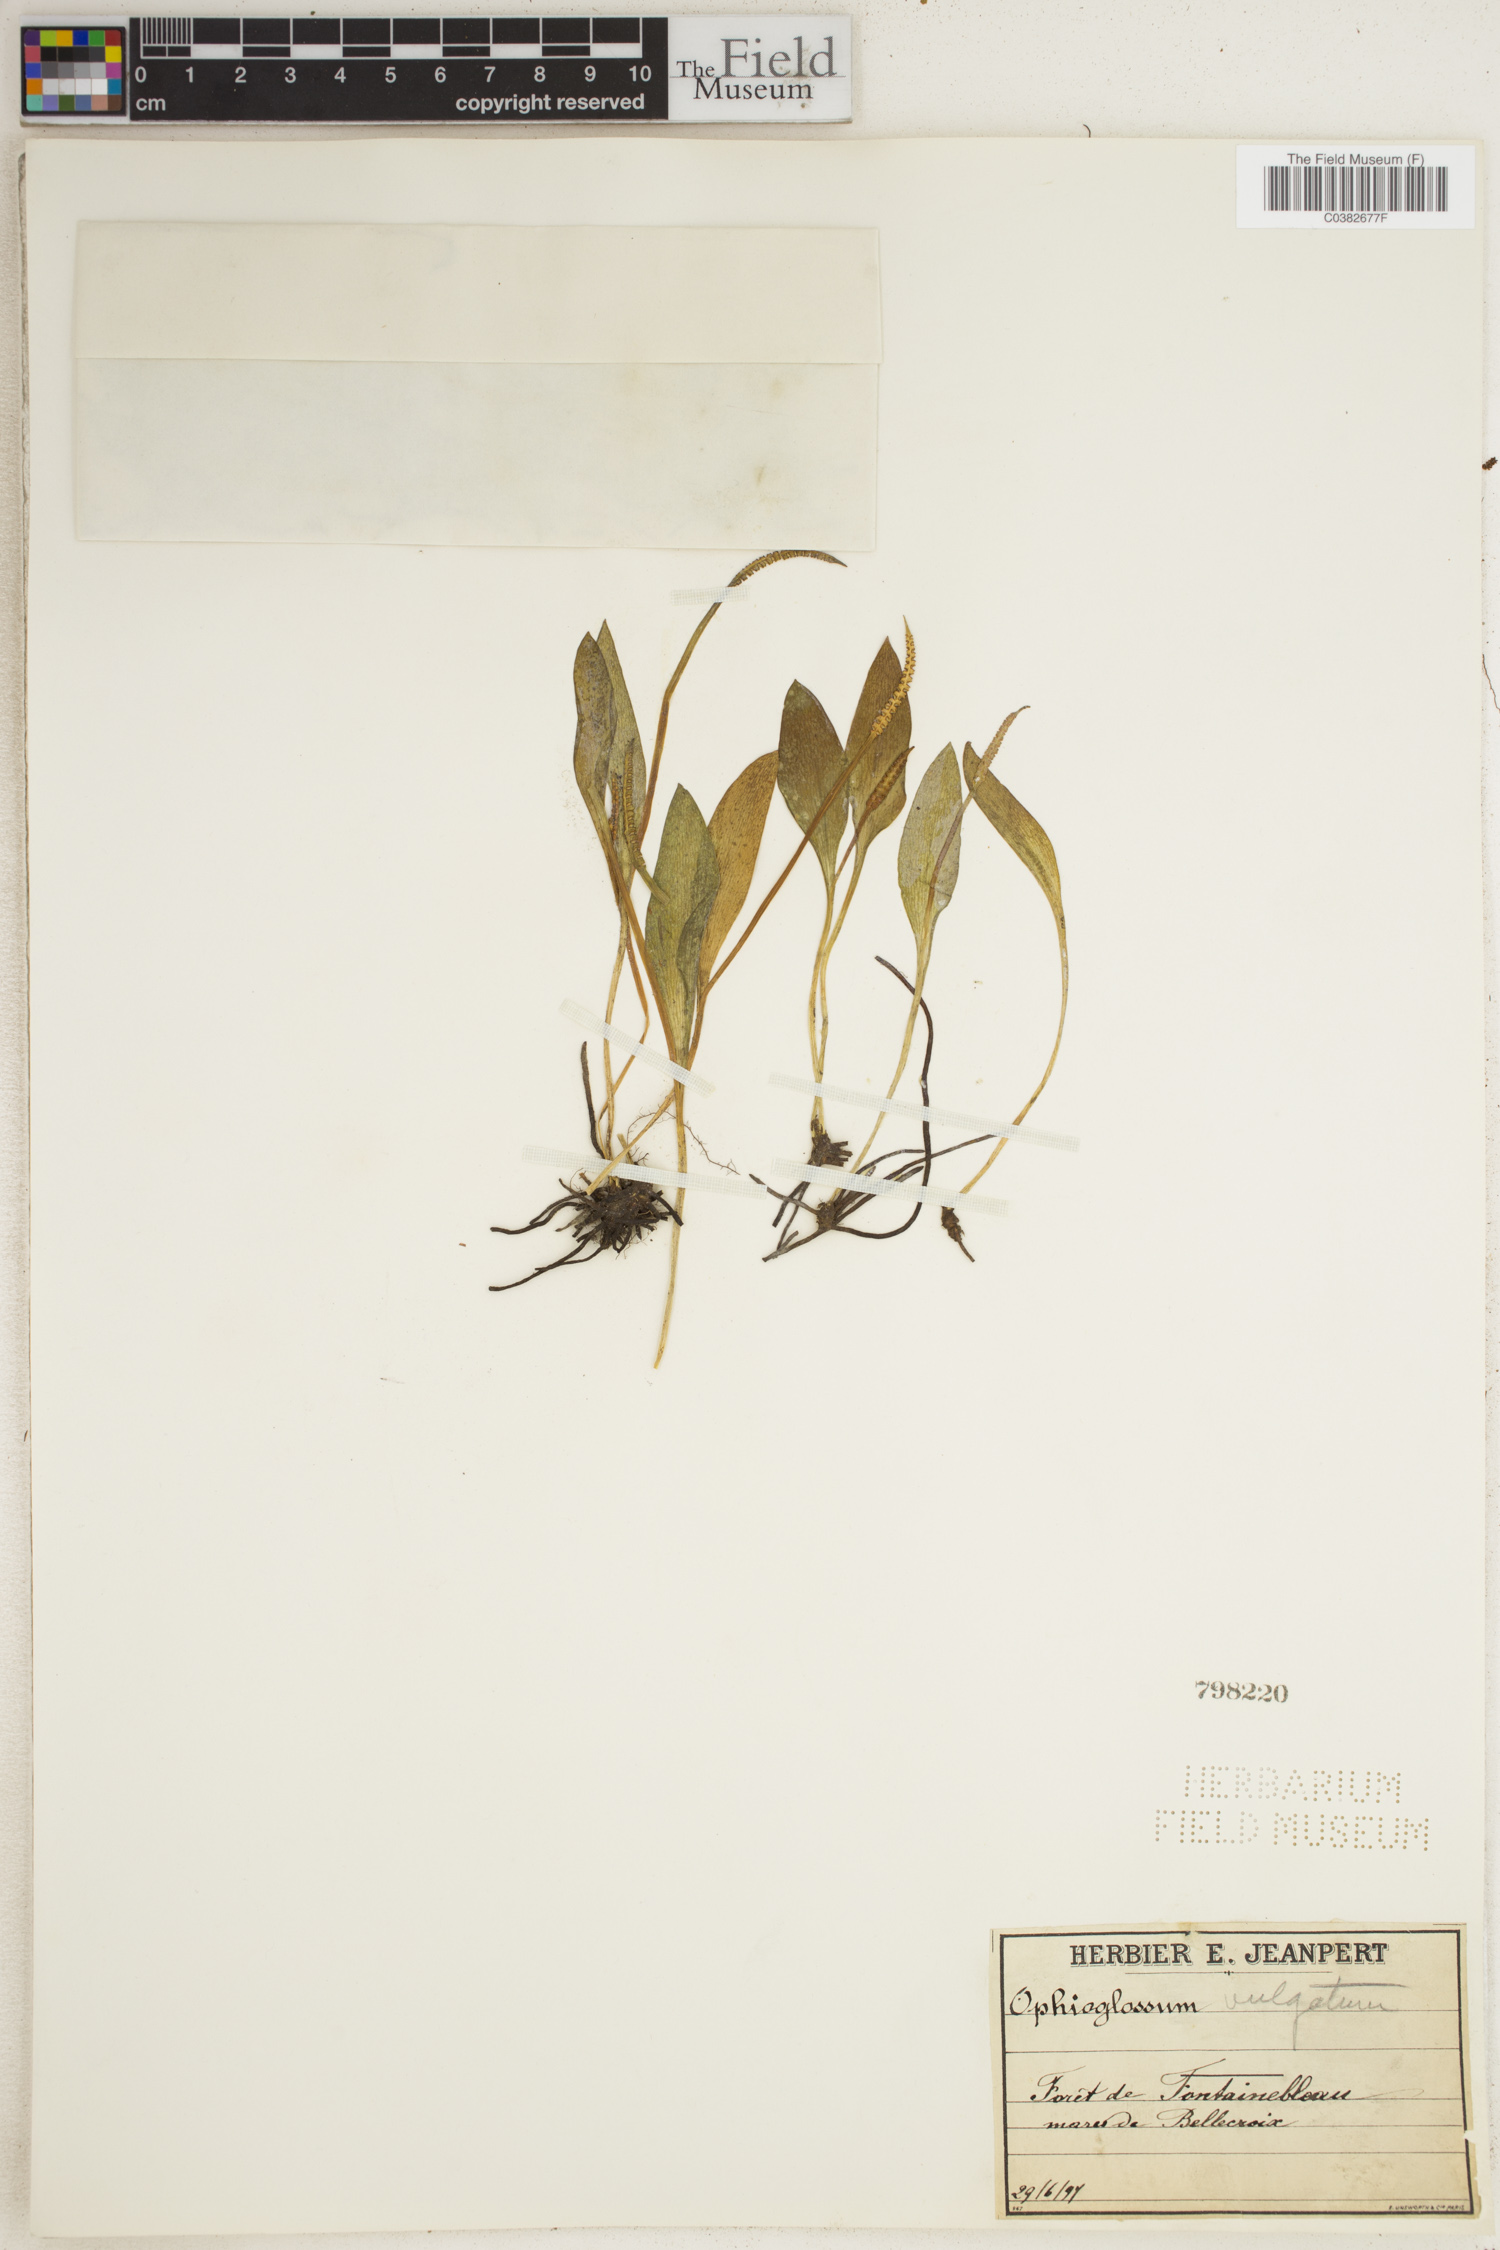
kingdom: Plantae
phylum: Tracheophyta
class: Polypodiopsida
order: Ophioglossales
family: Ophioglossaceae
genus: Ophioglossum
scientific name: Ophioglossum vulgatum
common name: Adder's-tongue
